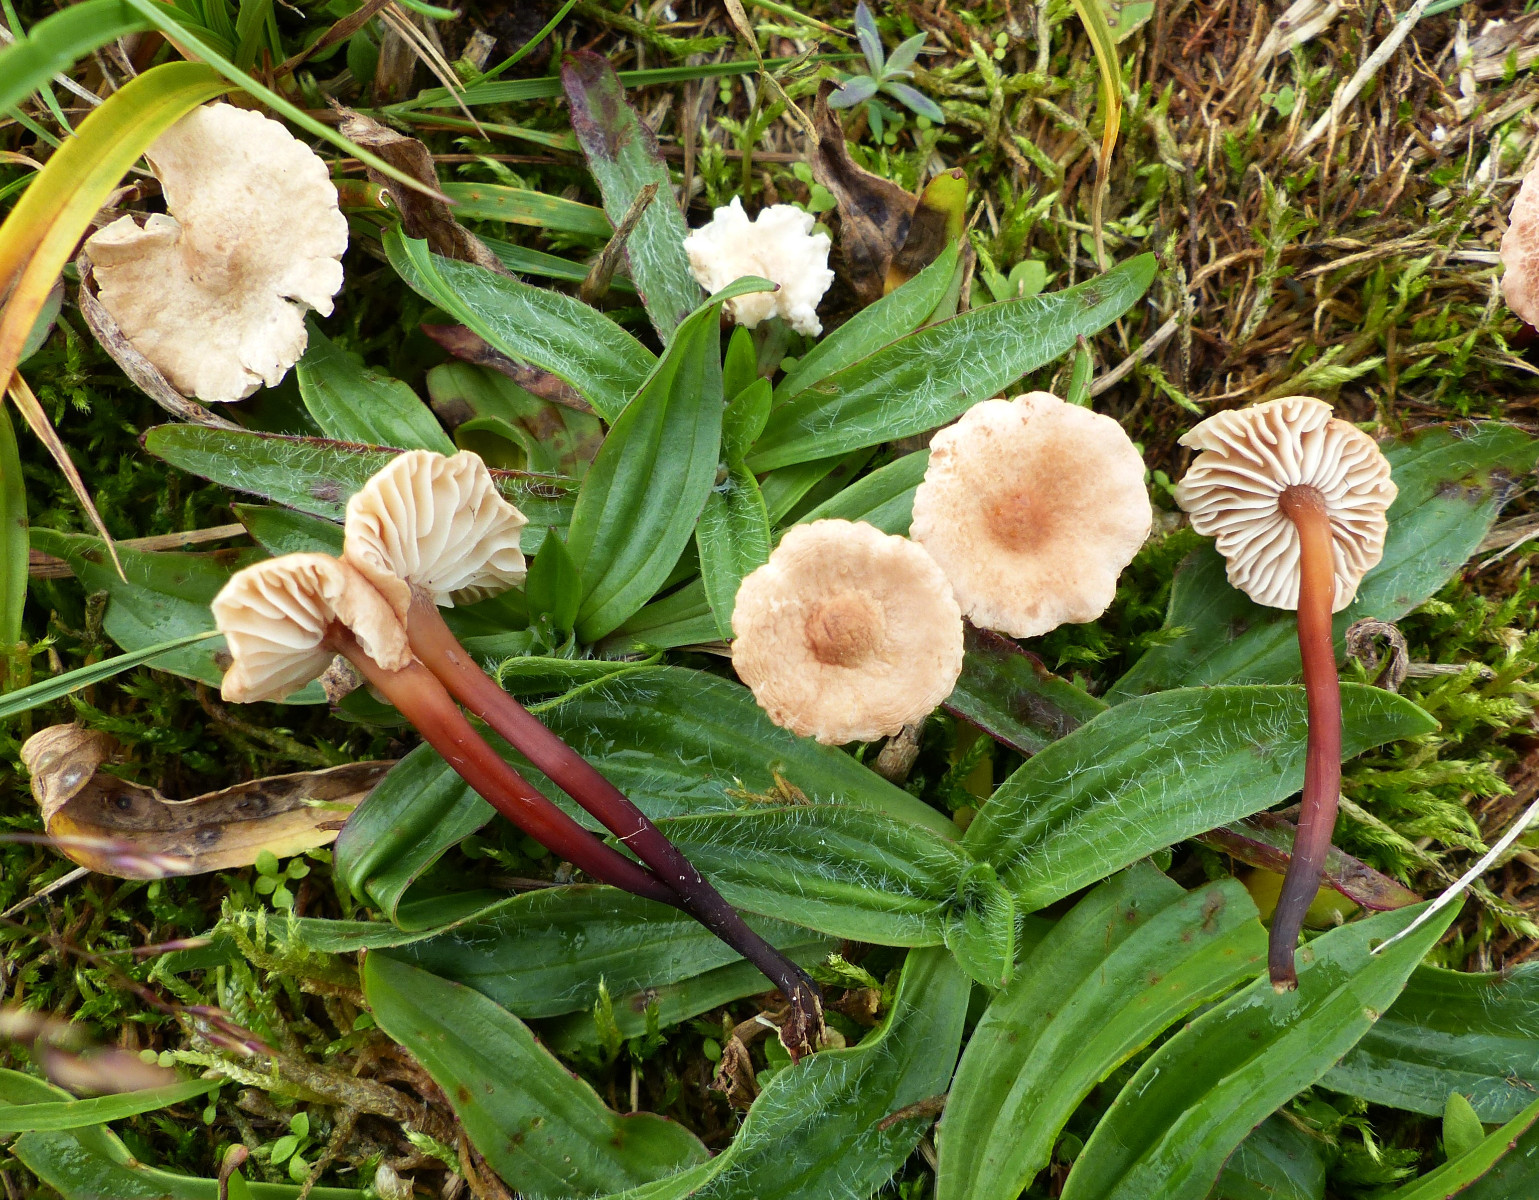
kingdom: Fungi
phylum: Basidiomycota
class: Agaricomycetes
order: Agaricales
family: Omphalotaceae
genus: Mycetinis
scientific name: Mycetinis scorodonius
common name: lille løghat
